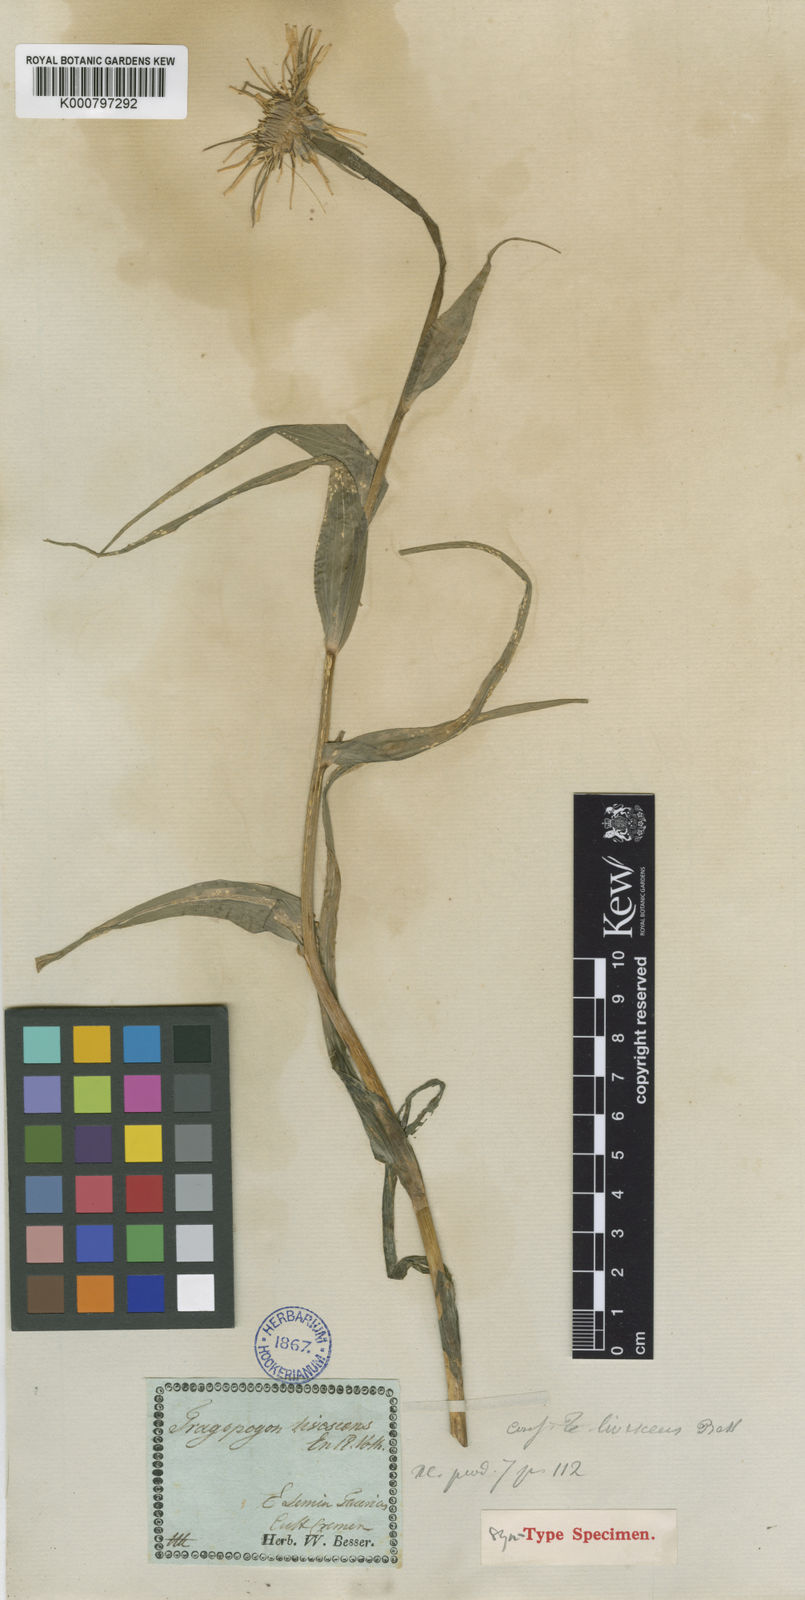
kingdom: Plantae
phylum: Tracheophyta
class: Magnoliopsida
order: Asterales
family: Asteraceae
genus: Tragopogon
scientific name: Tragopogon
